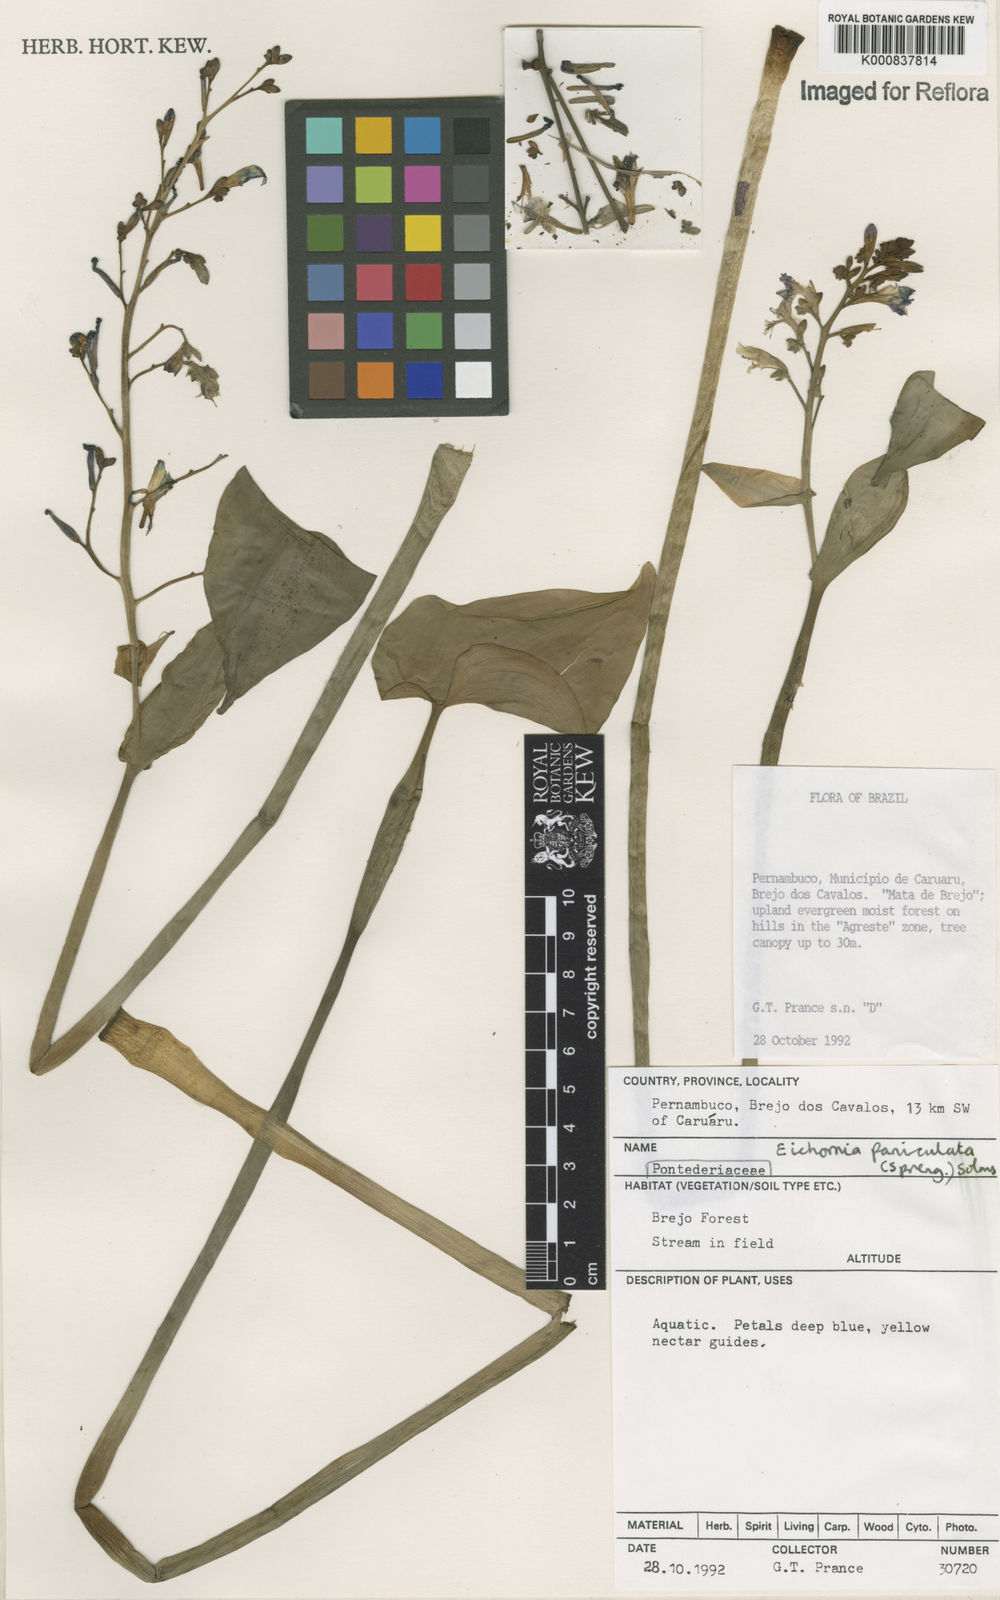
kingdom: Plantae
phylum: Tracheophyta
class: Liliopsida
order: Commelinales
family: Pontederiaceae
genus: Pontederia
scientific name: Pontederia paniculata
